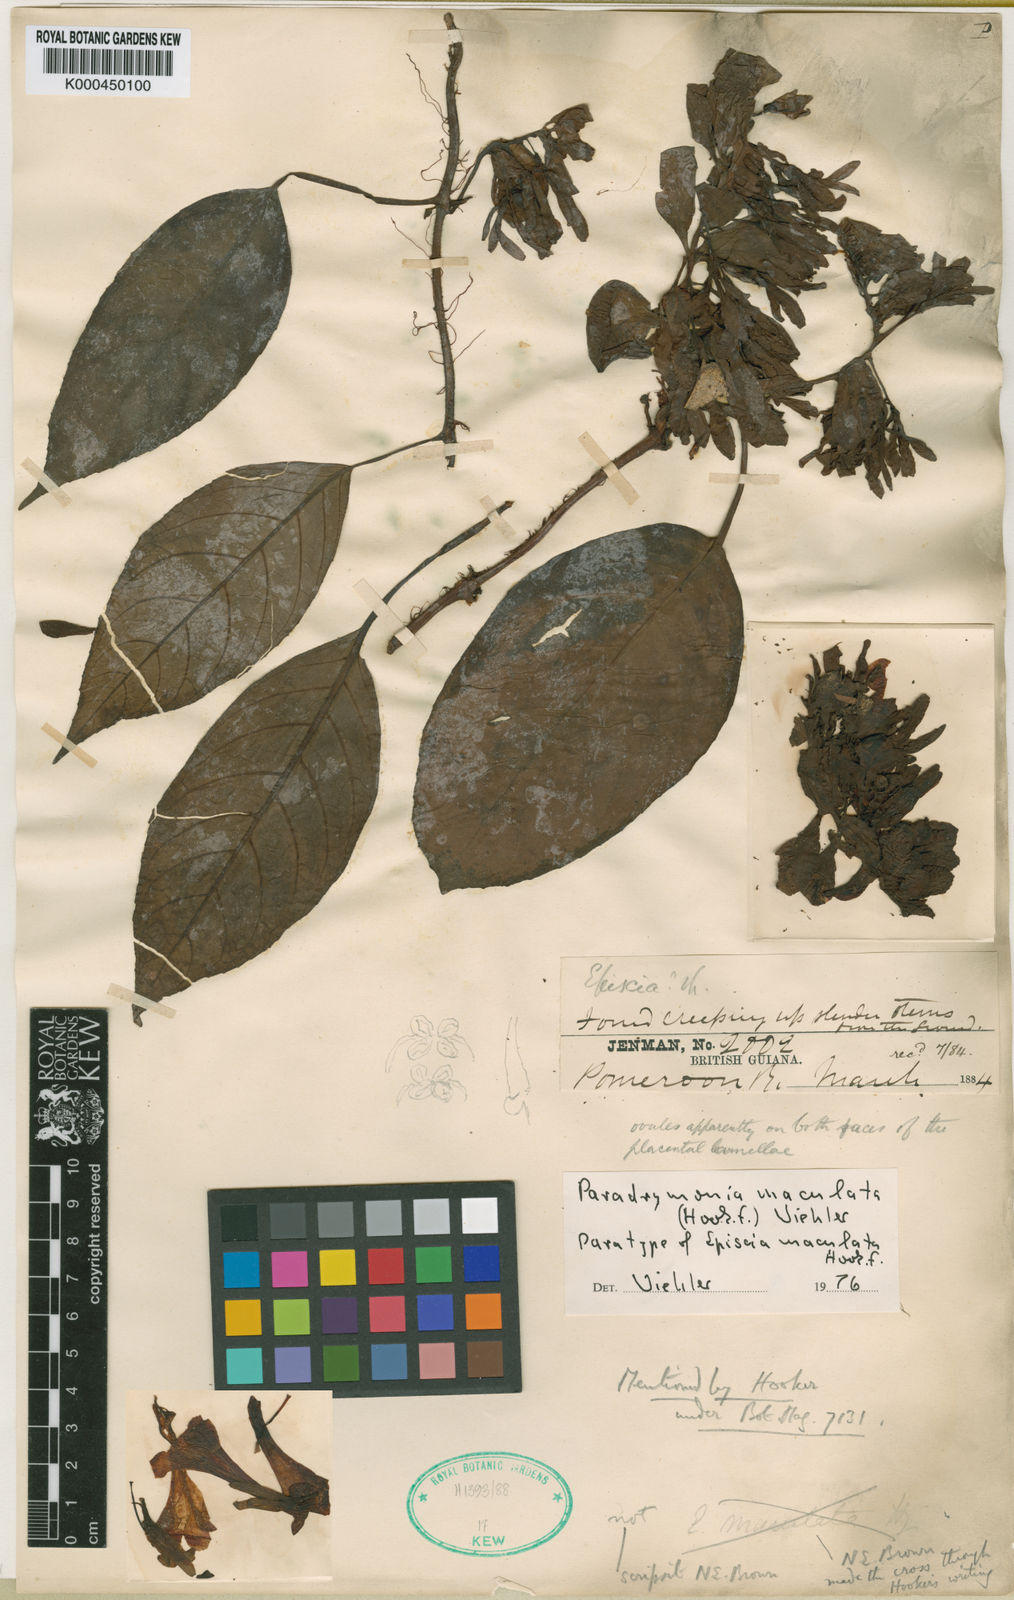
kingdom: Plantae
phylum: Tracheophyta
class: Magnoliopsida
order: Lamiales
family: Gesneriaceae
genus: Pagothyra
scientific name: Pagothyra maculata
